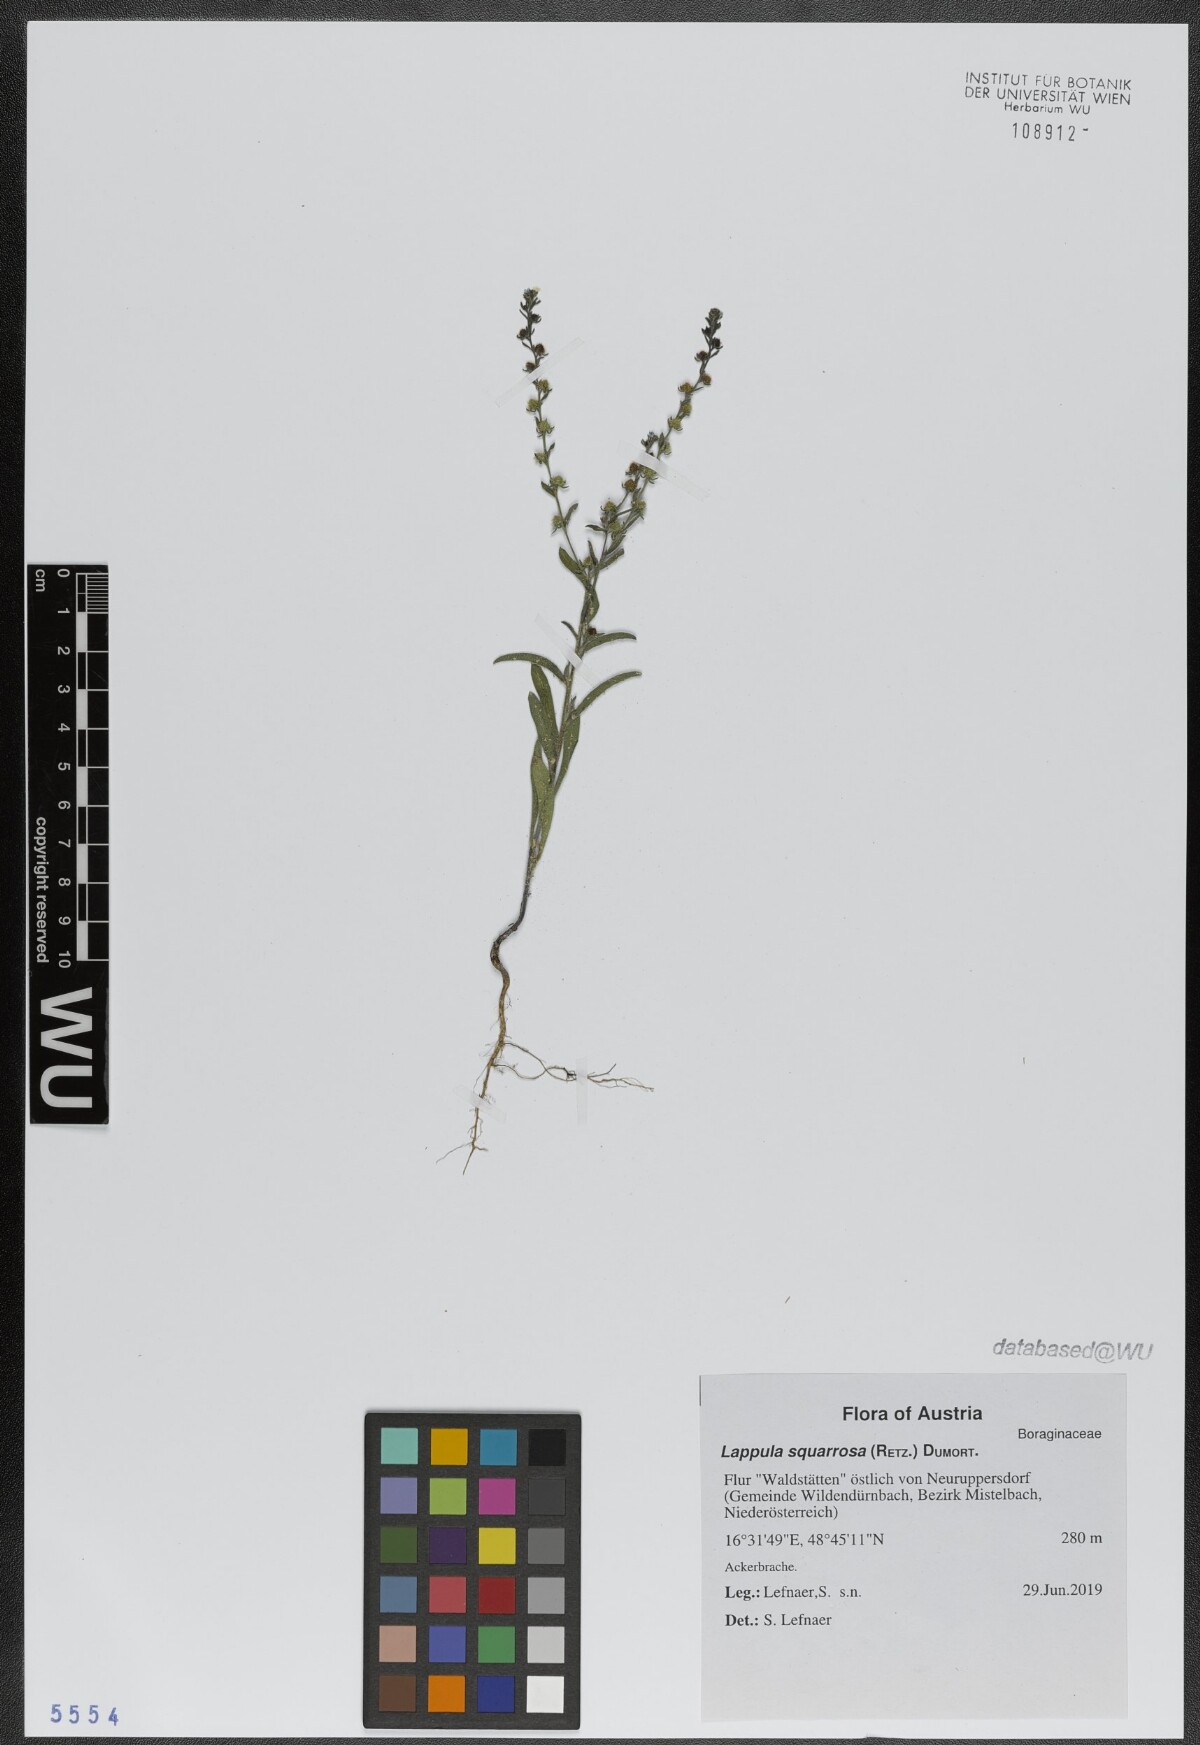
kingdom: Plantae
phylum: Tracheophyta
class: Magnoliopsida
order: Boraginales
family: Boraginaceae
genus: Lappula
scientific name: Lappula squarrosa
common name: European stickseed
